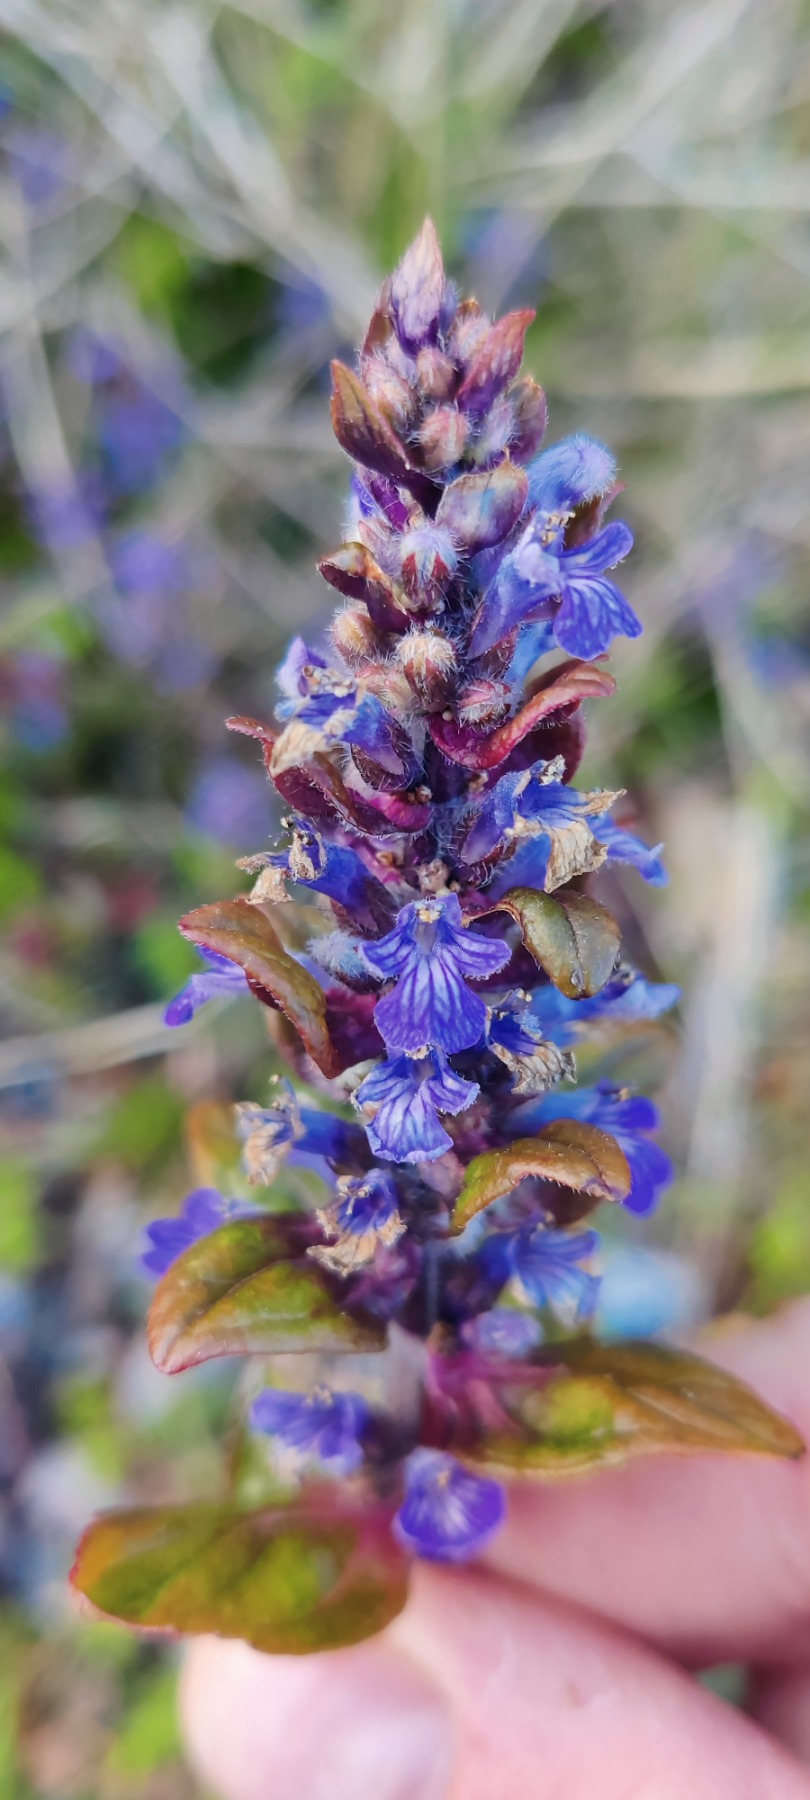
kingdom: Plantae
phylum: Tracheophyta
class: Magnoliopsida
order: Lamiales
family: Lamiaceae
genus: Ajuga
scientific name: Ajuga reptans
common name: Krybende læbeløs
